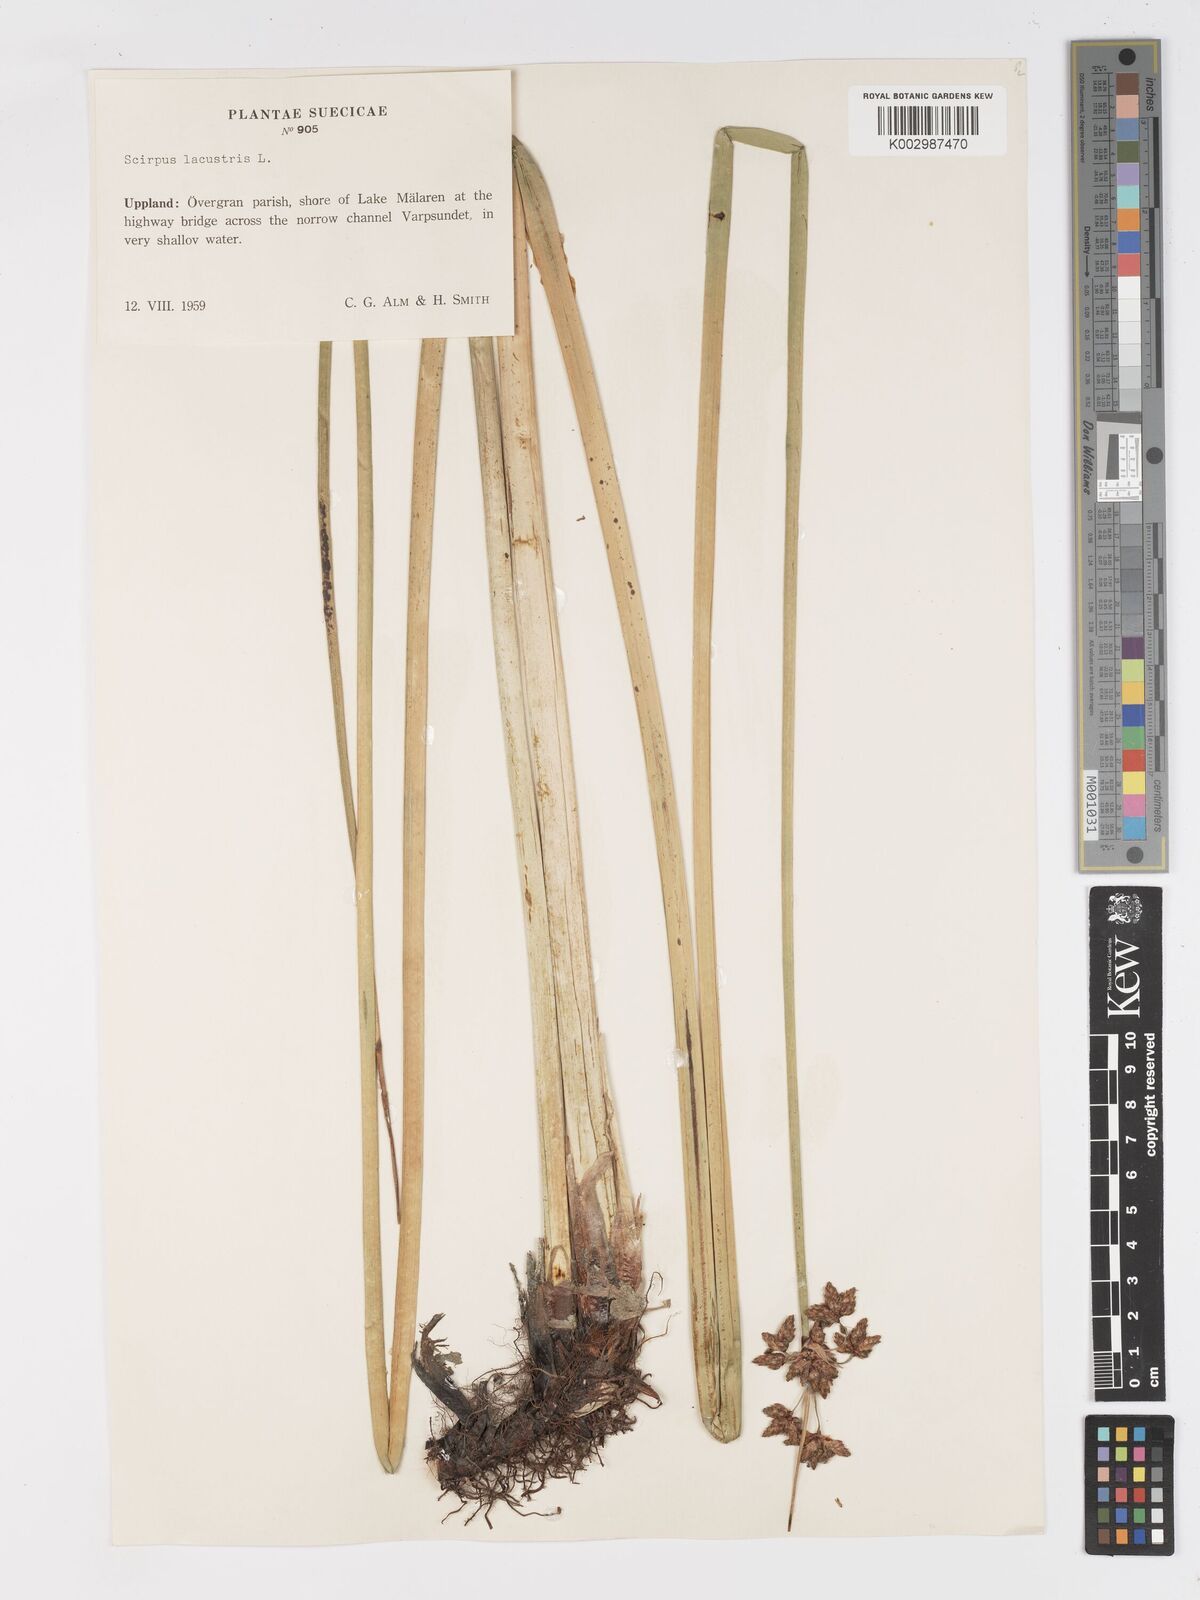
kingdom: Plantae
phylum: Tracheophyta
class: Liliopsida
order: Poales
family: Cyperaceae
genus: Schoenoplectus
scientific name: Schoenoplectus lacustris
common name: Common club-rush
